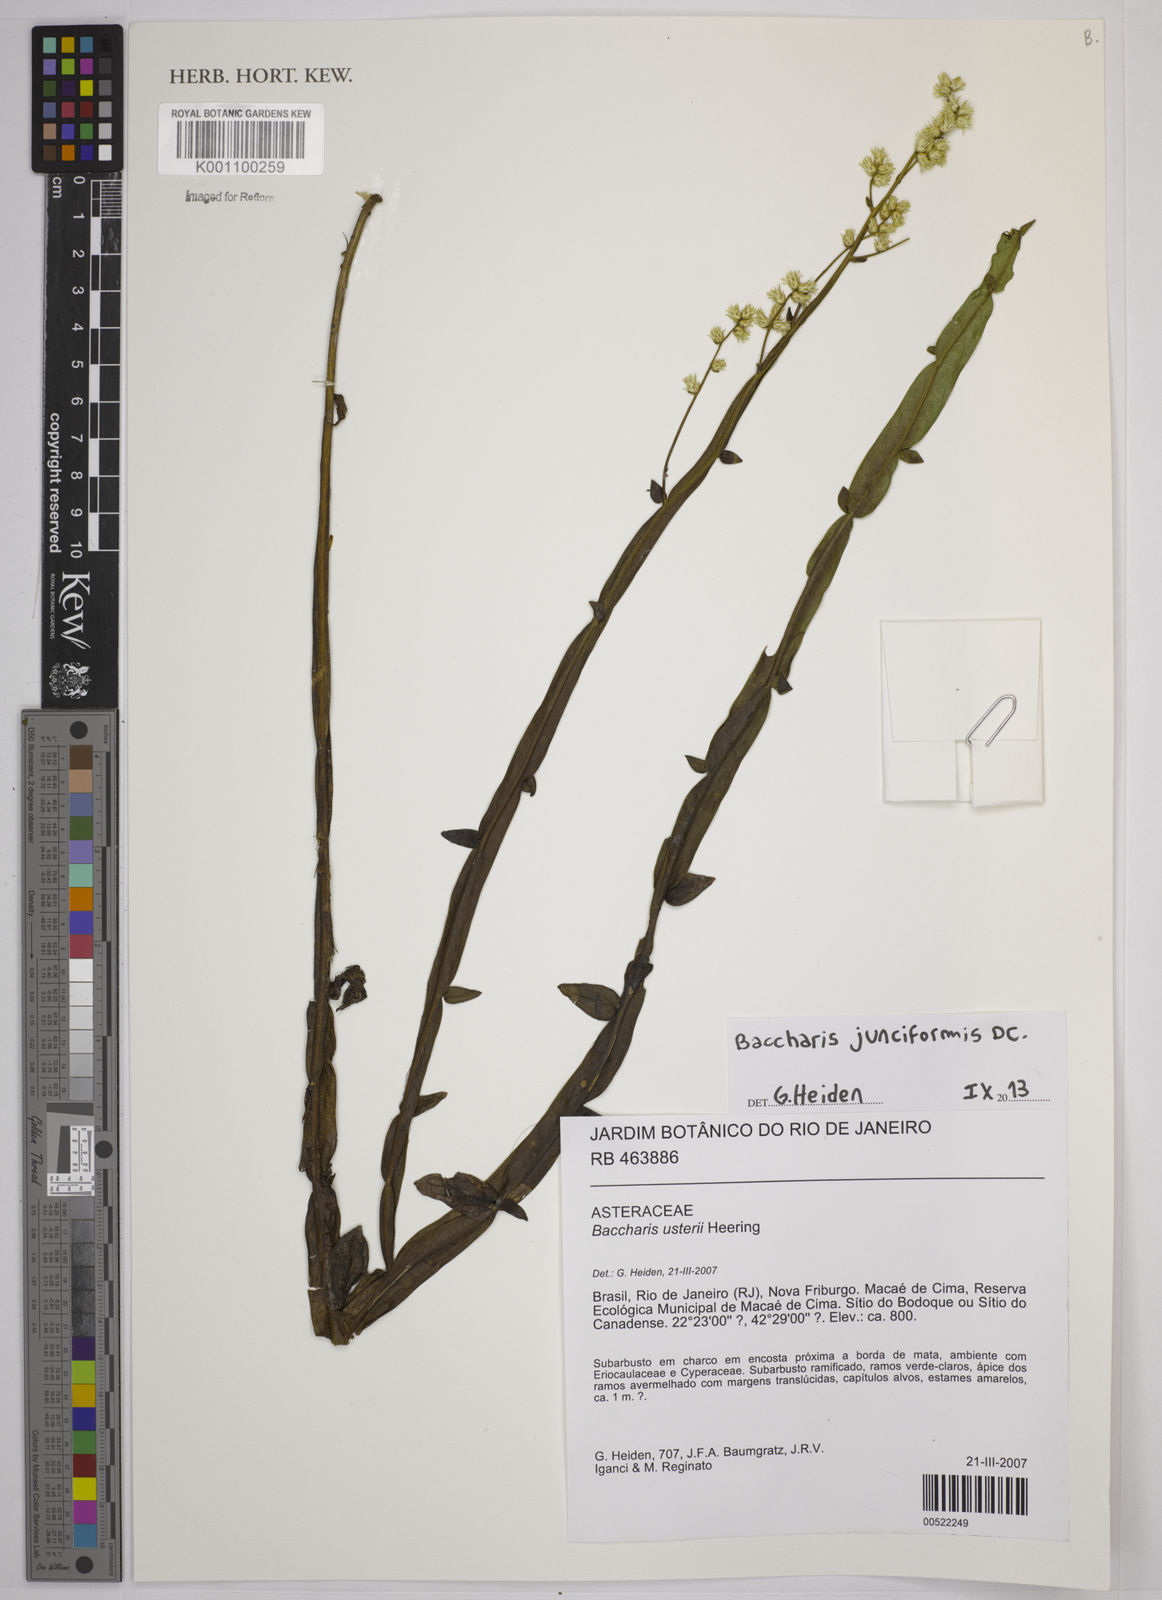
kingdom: Plantae
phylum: Tracheophyta
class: Magnoliopsida
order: Asterales
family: Asteraceae
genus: Baccharis
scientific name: Baccharis junciformis
